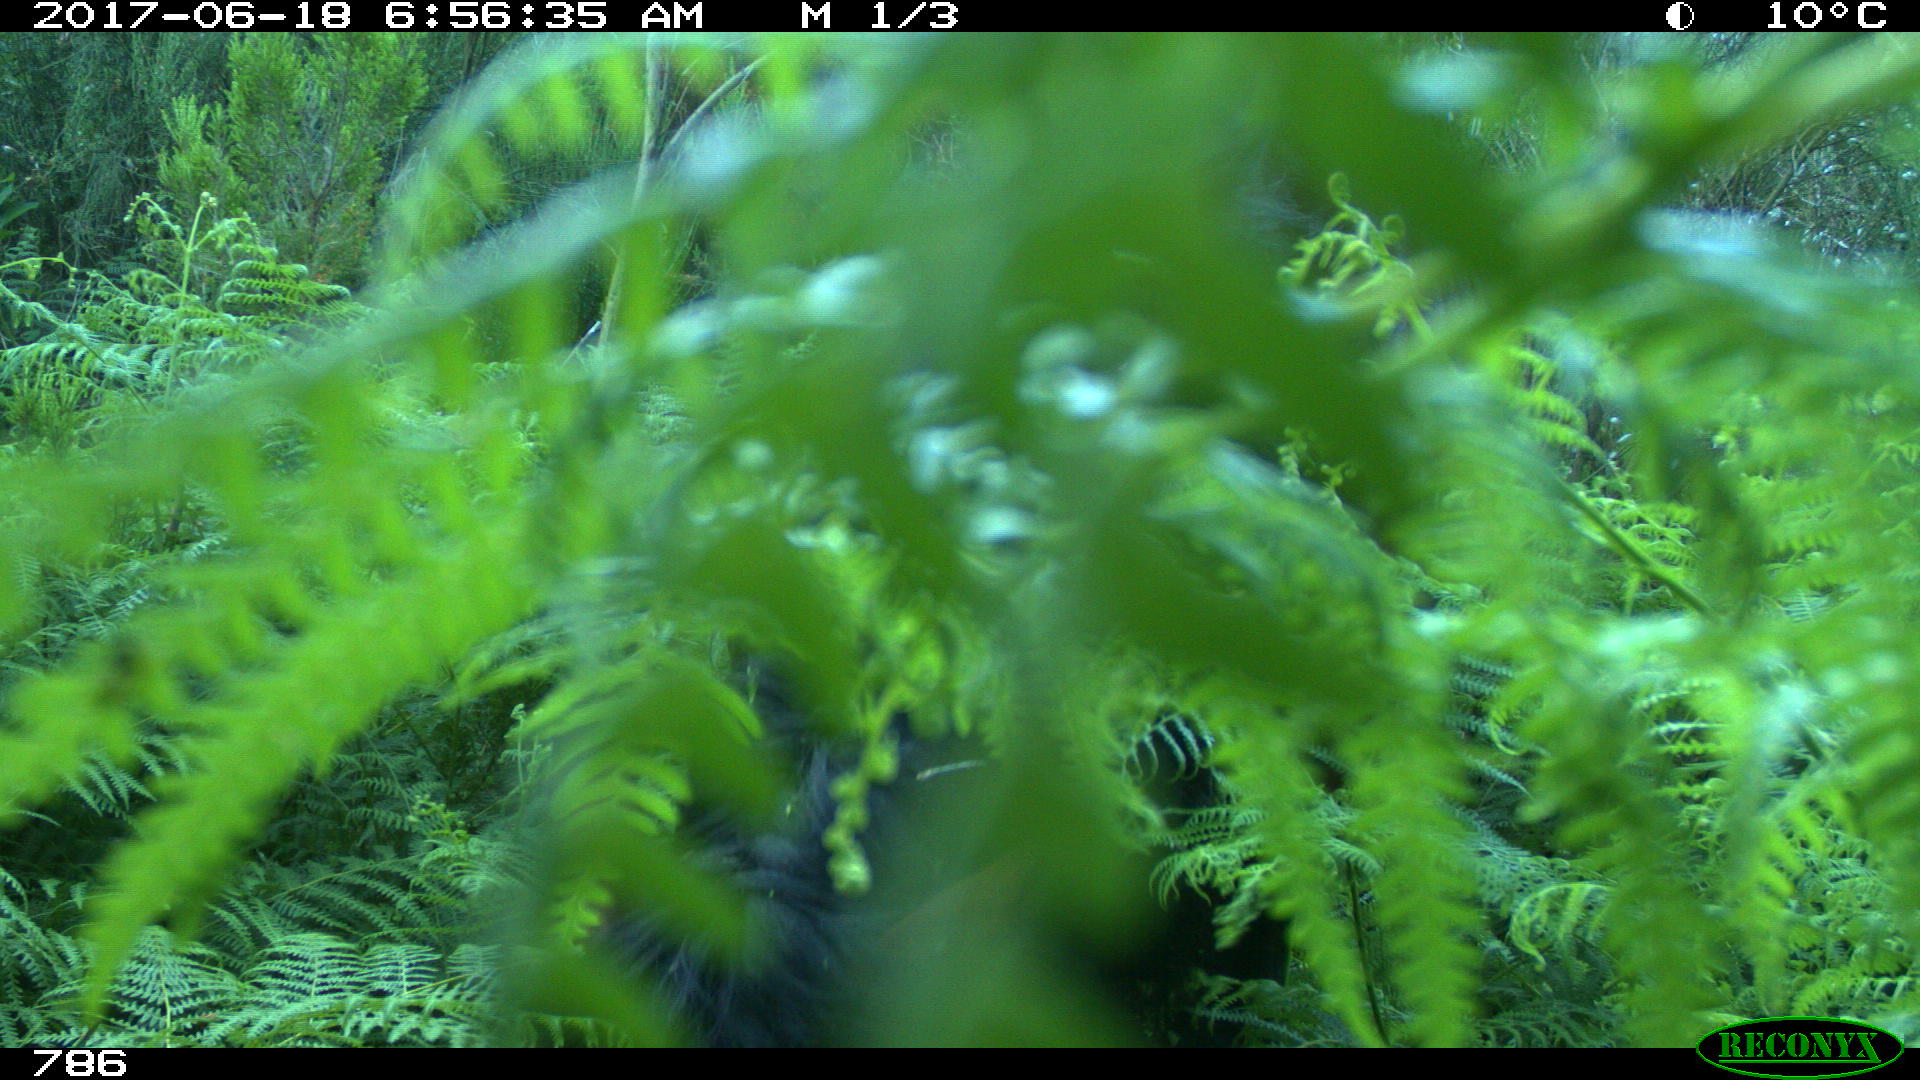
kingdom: Animalia
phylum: Chordata
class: Mammalia
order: Perissodactyla
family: Equidae
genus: Equus
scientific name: Equus caballus
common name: Horse
